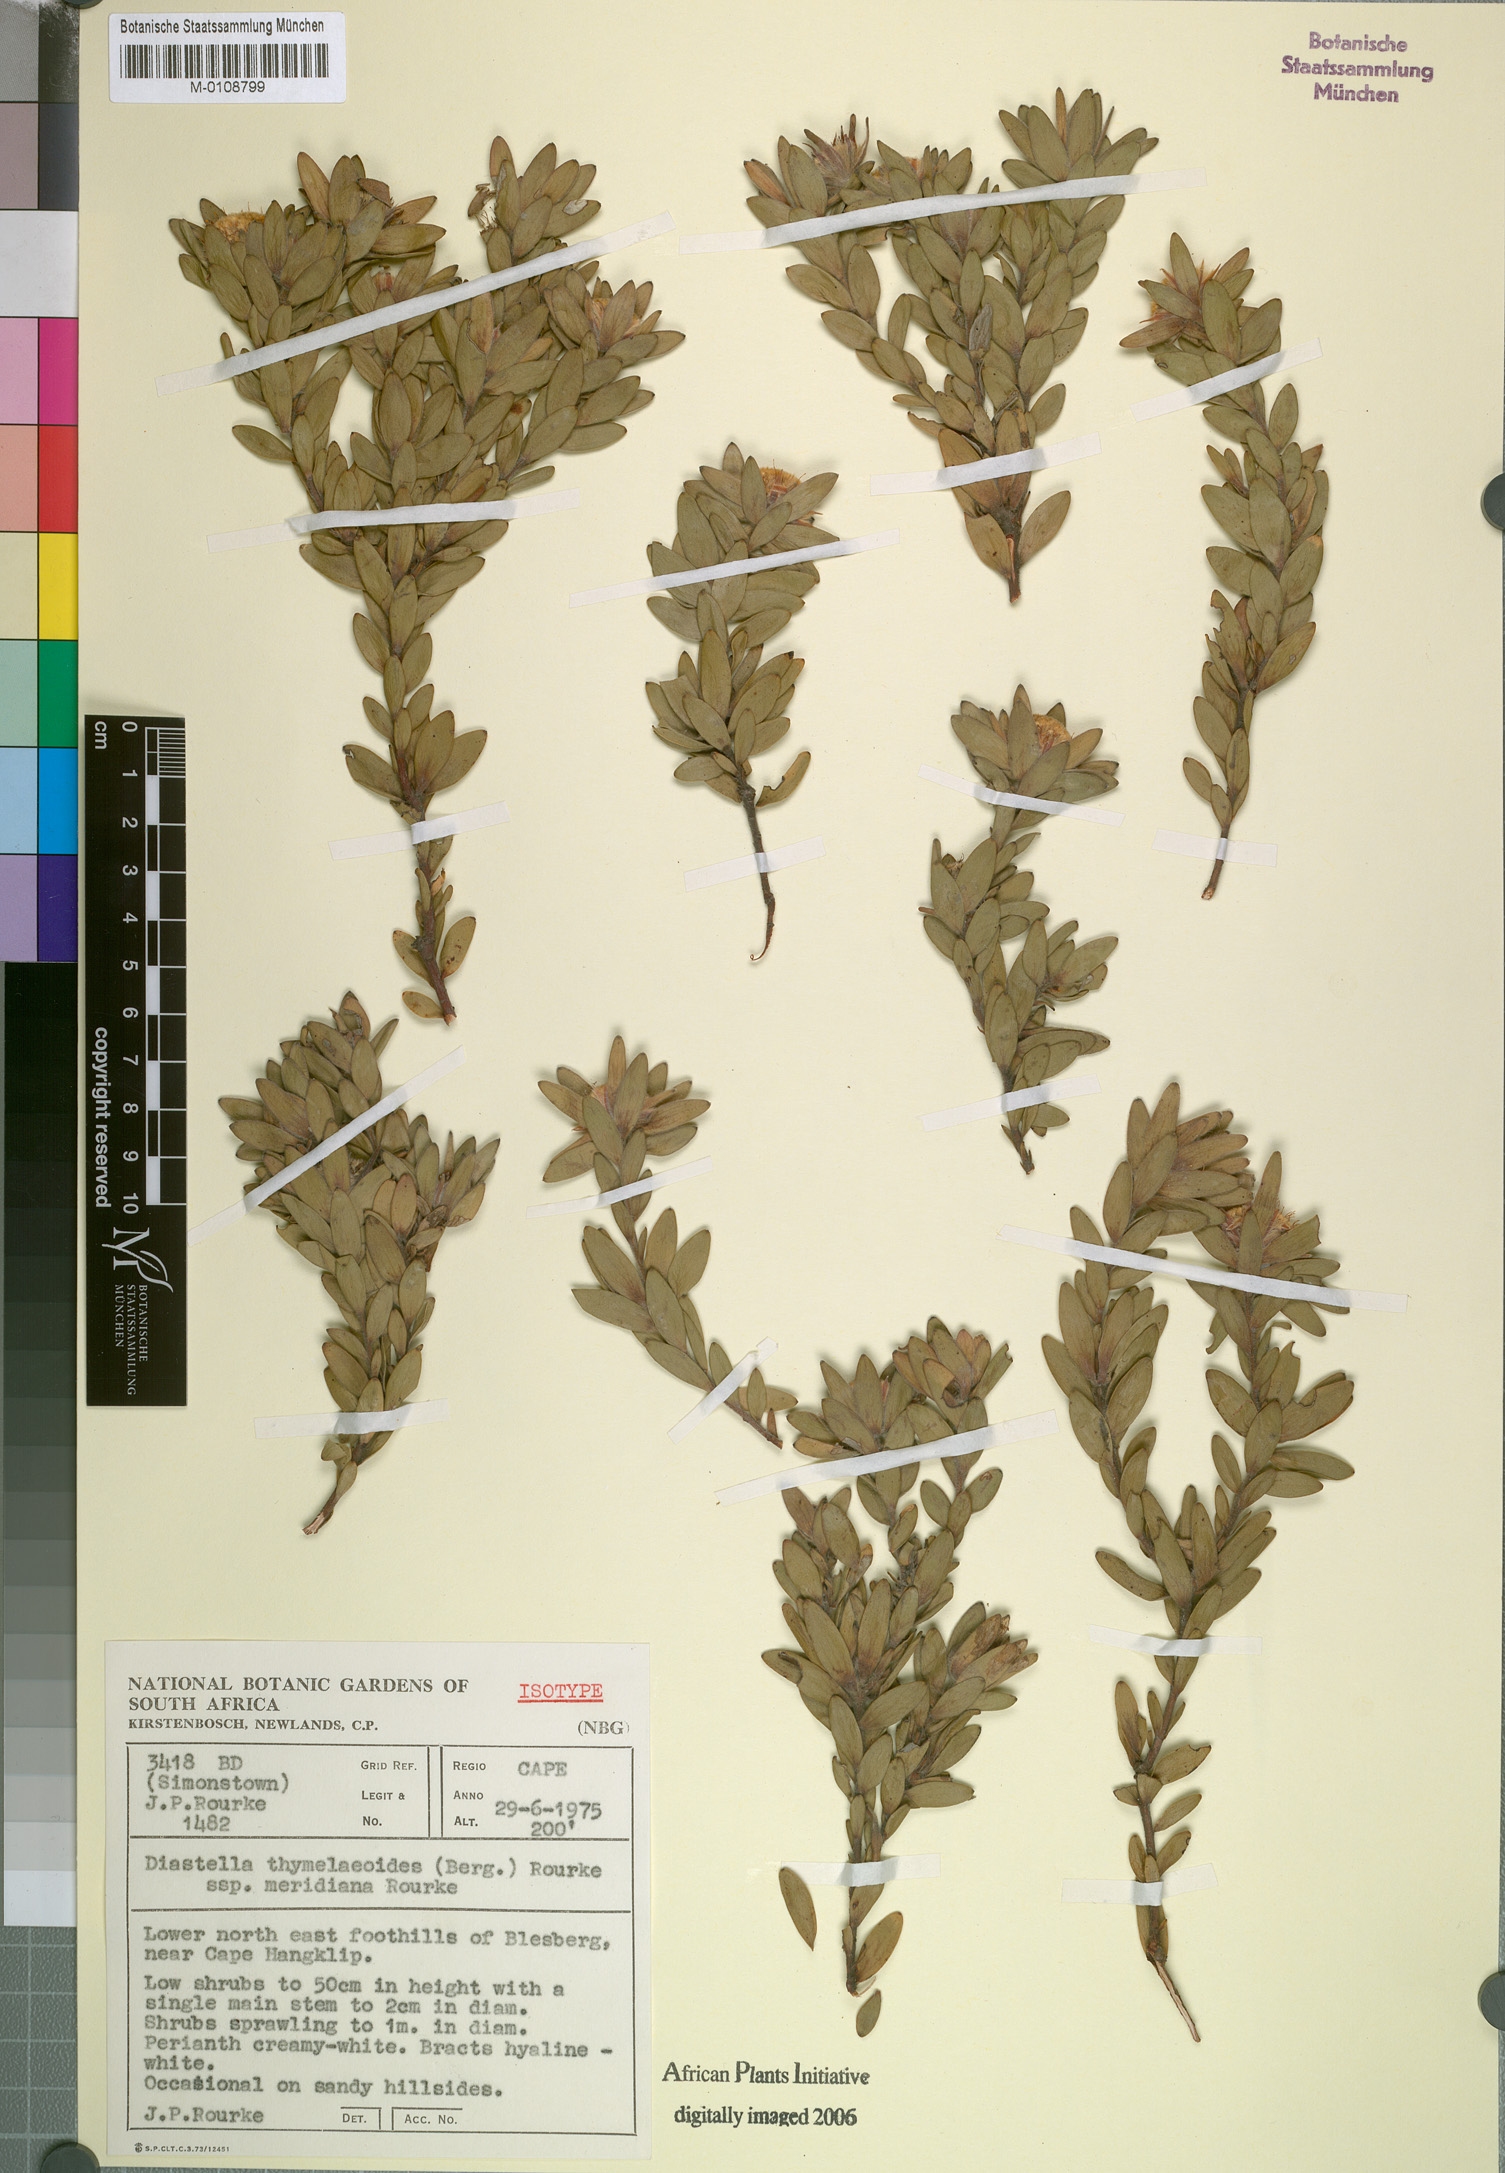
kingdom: Plantae
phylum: Tracheophyta
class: Magnoliopsida
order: Proteales
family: Proteaceae
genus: Diastella
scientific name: Diastella thymelaeoides
